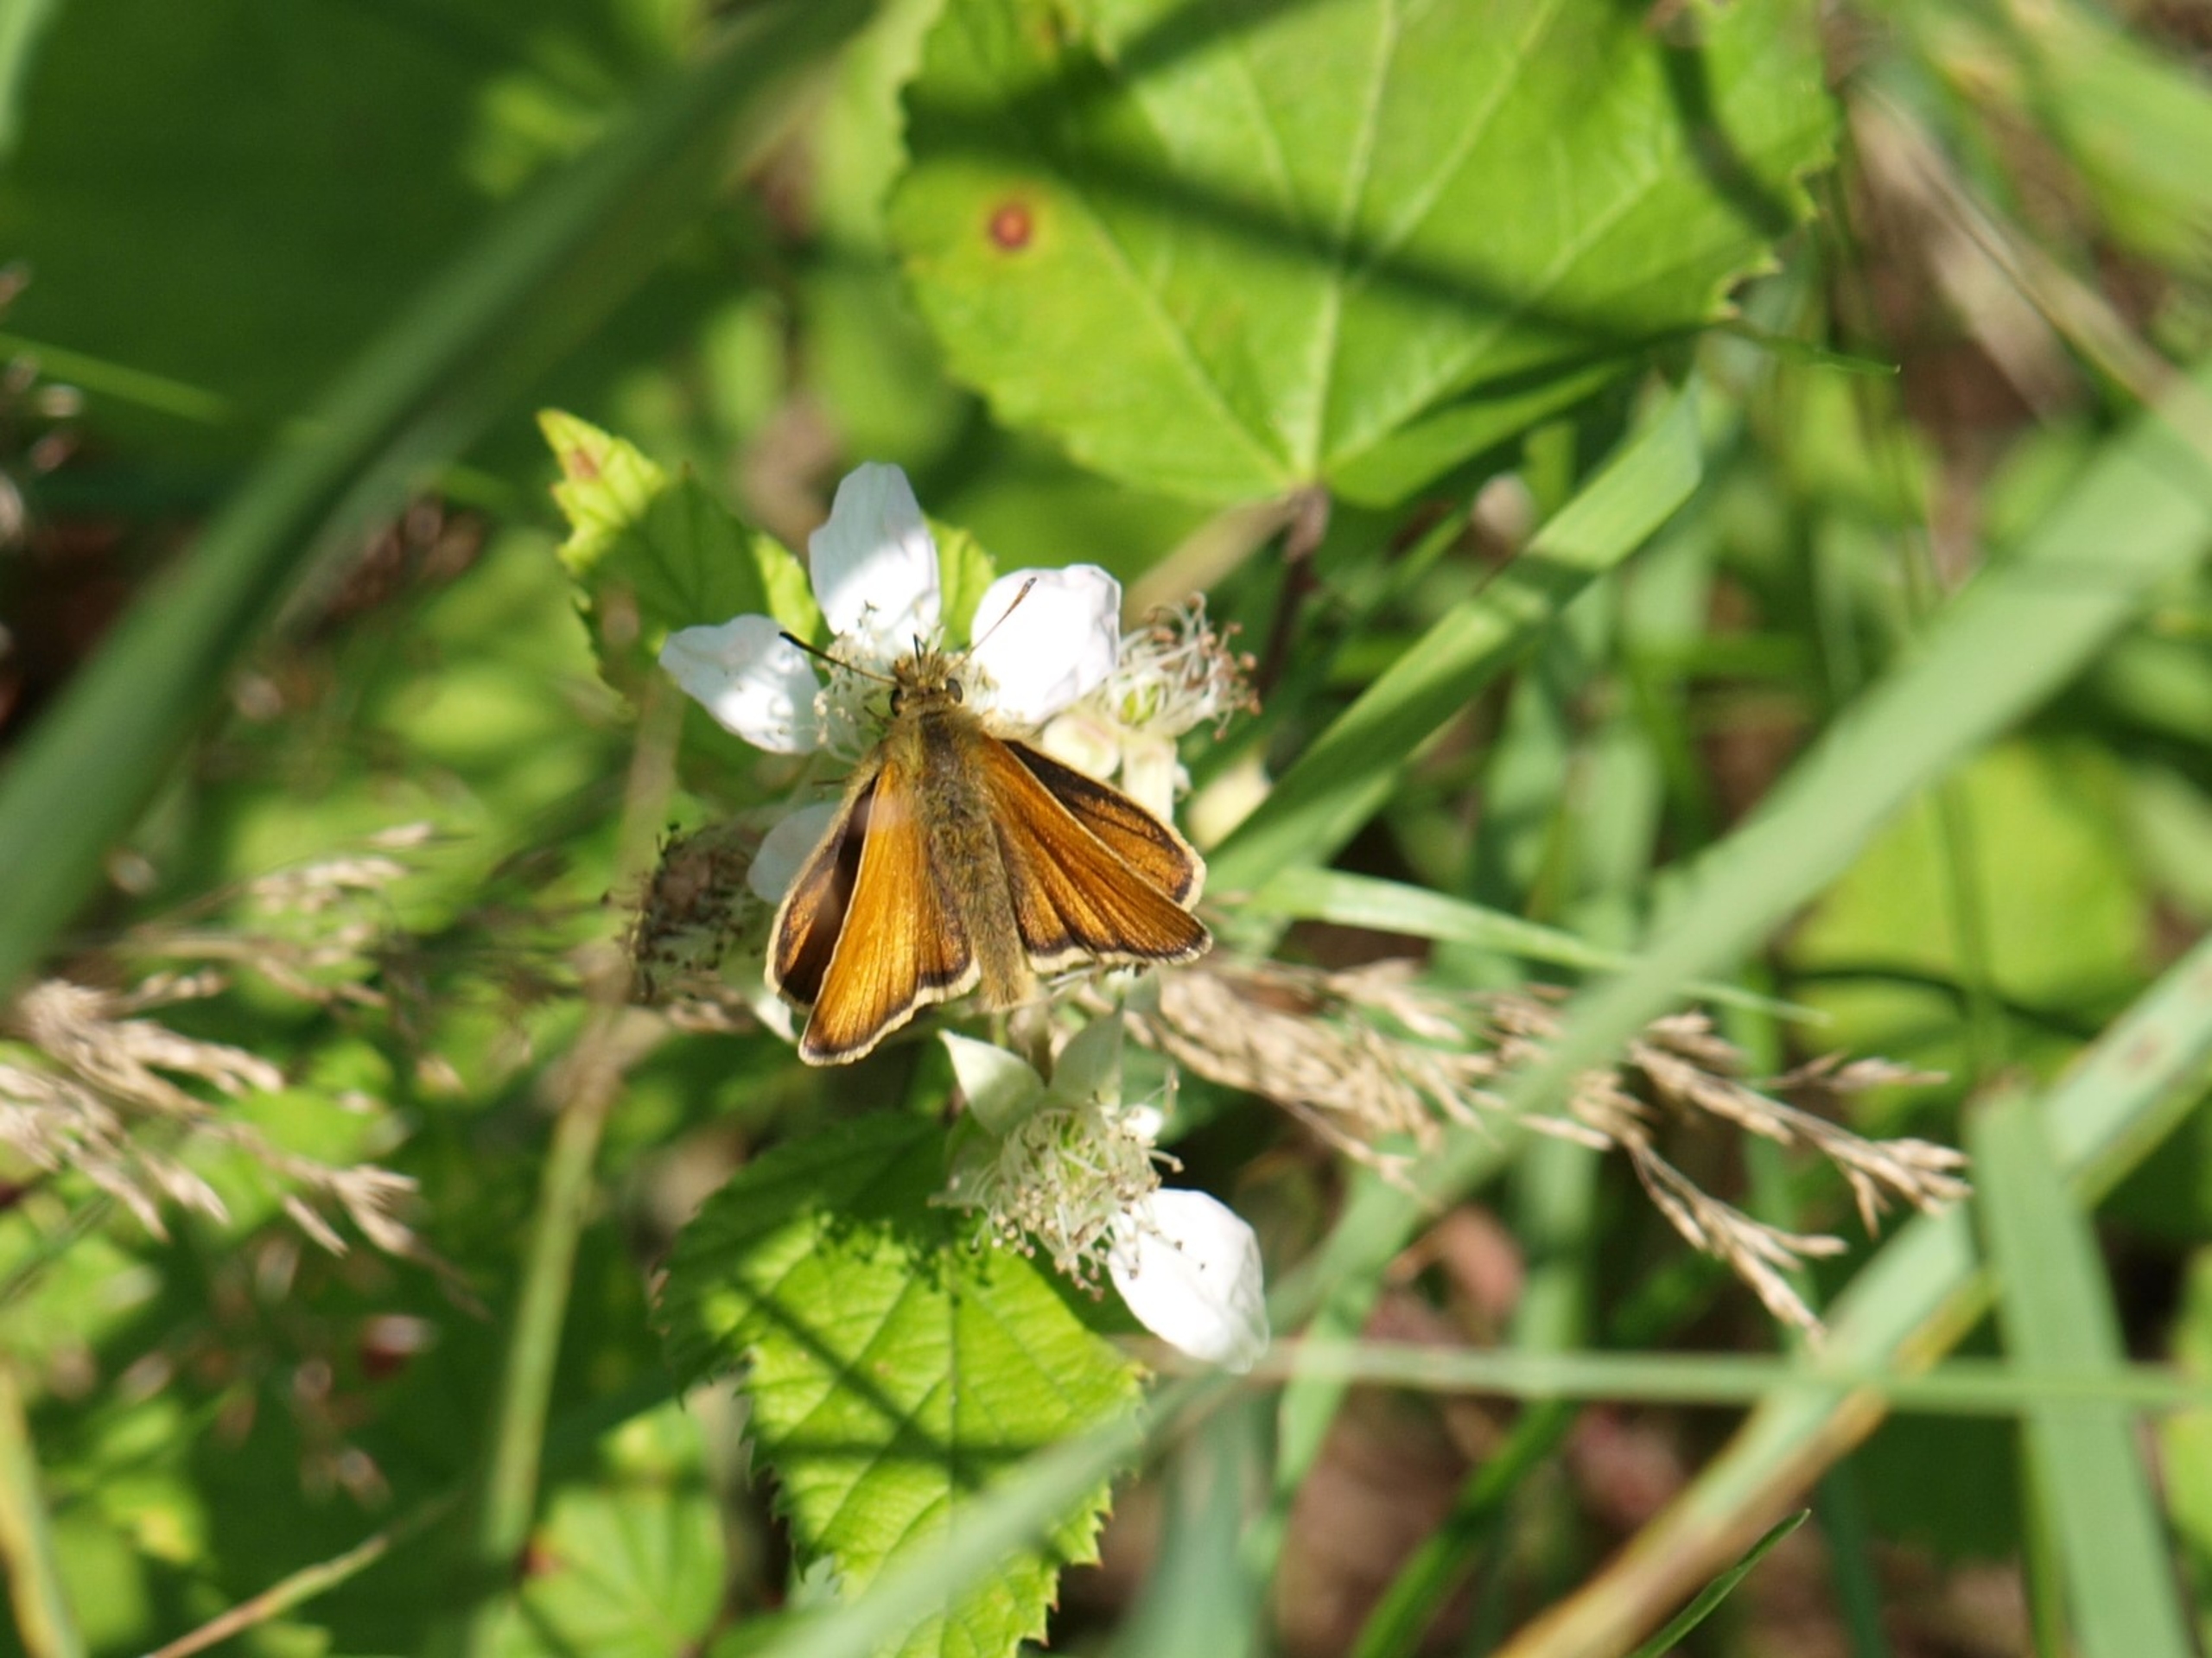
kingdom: Animalia
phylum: Arthropoda
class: Insecta
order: Lepidoptera
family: Hesperiidae
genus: Thymelicus
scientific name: Thymelicus lineola
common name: Stregbredpande
